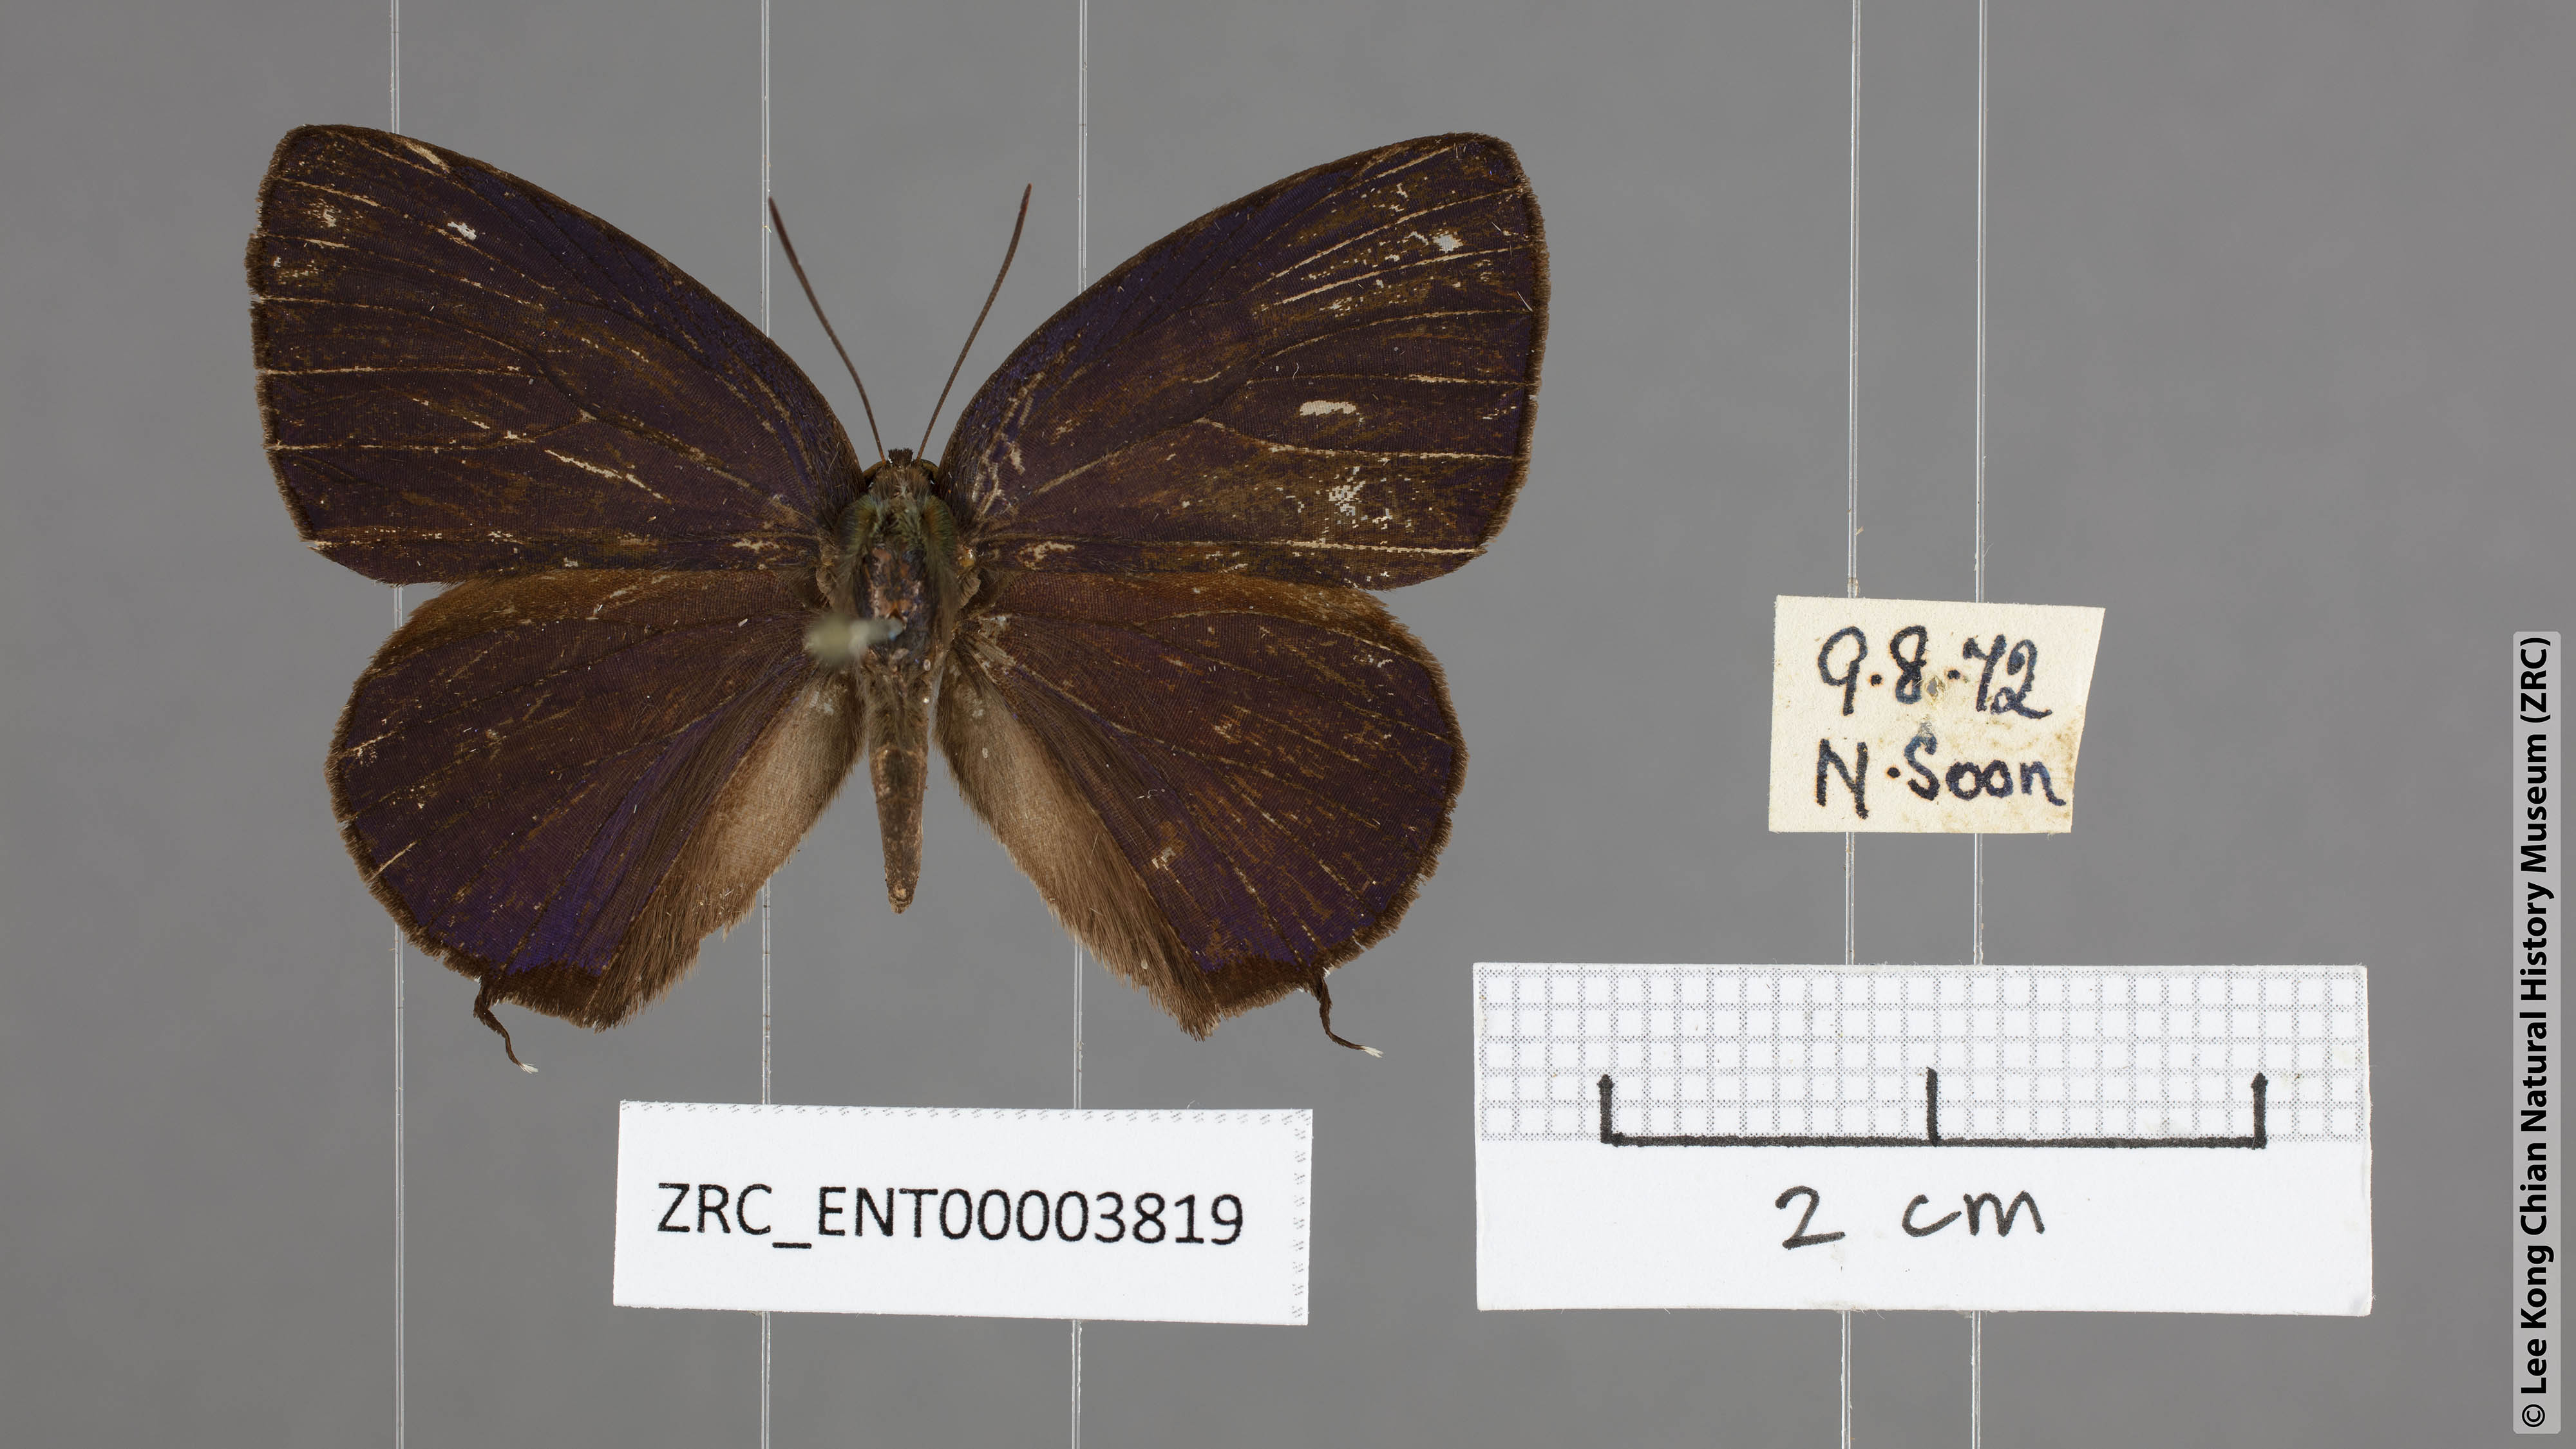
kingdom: Animalia
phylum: Arthropoda
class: Insecta
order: Lepidoptera
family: Lycaenidae
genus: Arhopala
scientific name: Arhopala agrata
